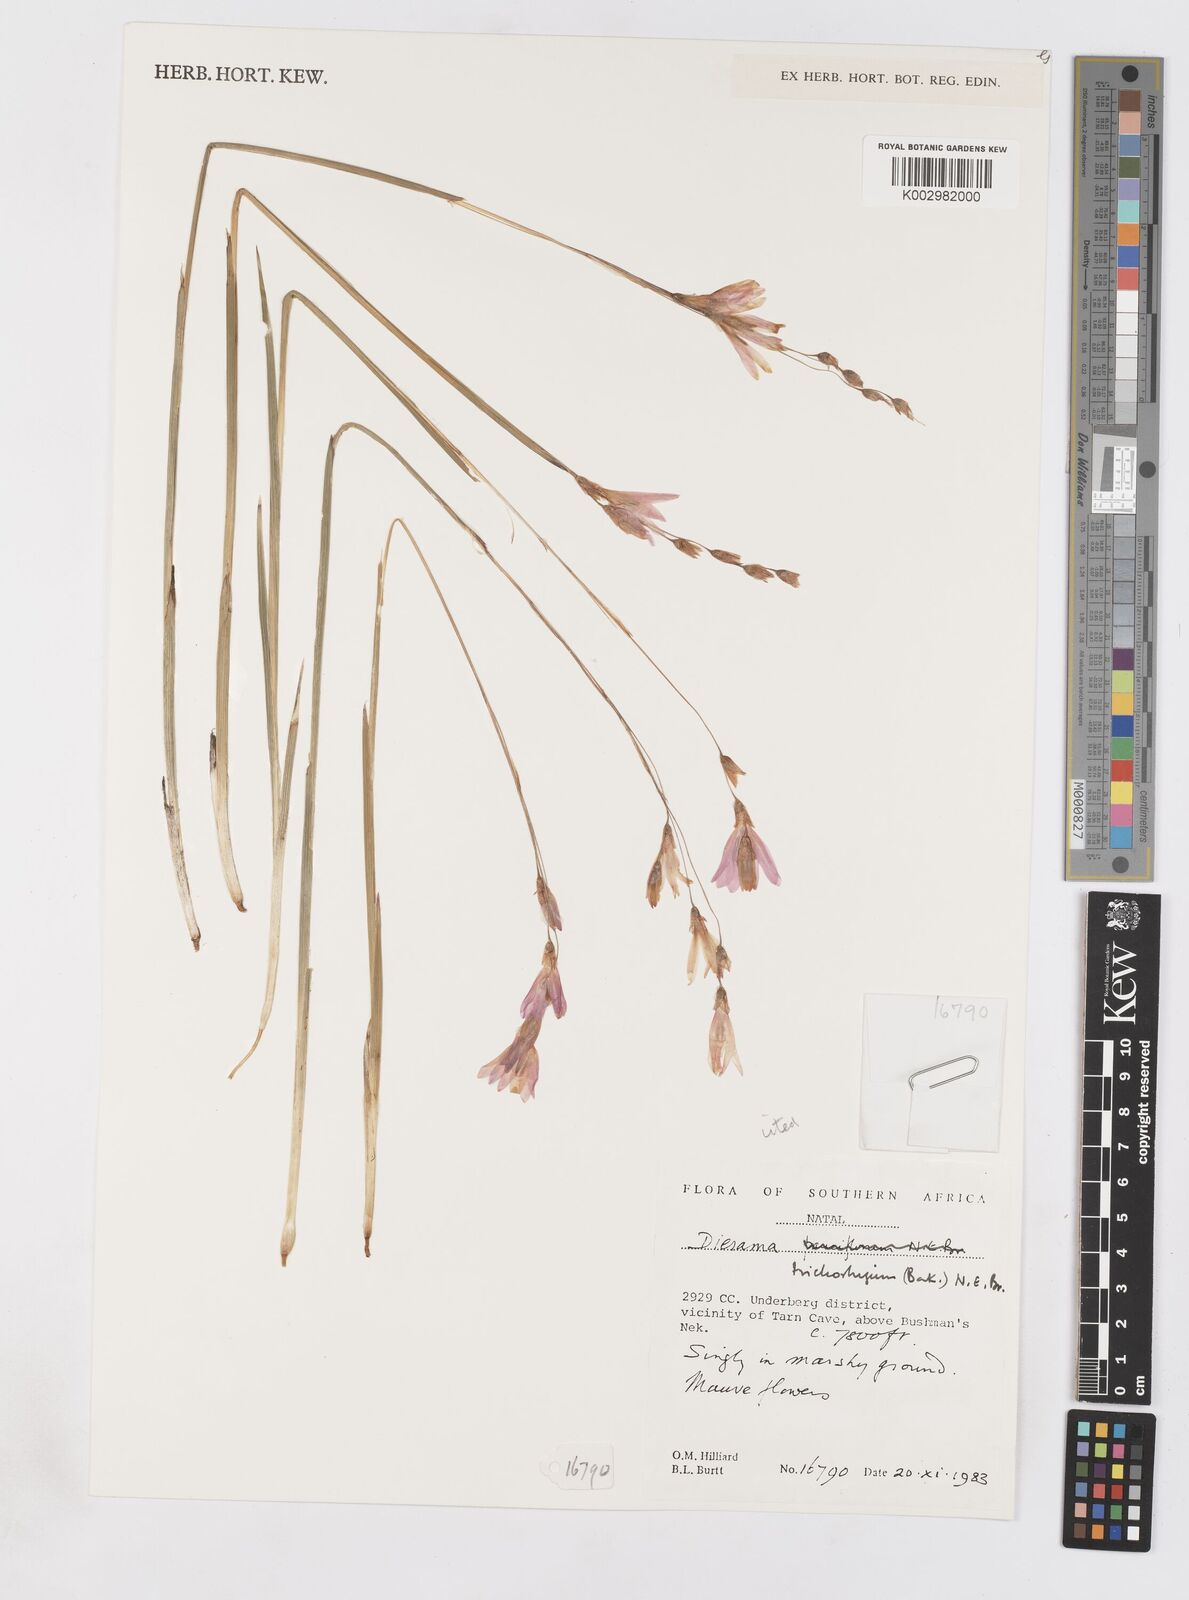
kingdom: Plantae
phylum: Tracheophyta
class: Liliopsida
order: Asparagales
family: Iridaceae
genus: Dierama
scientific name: Dierama trichorhizum
